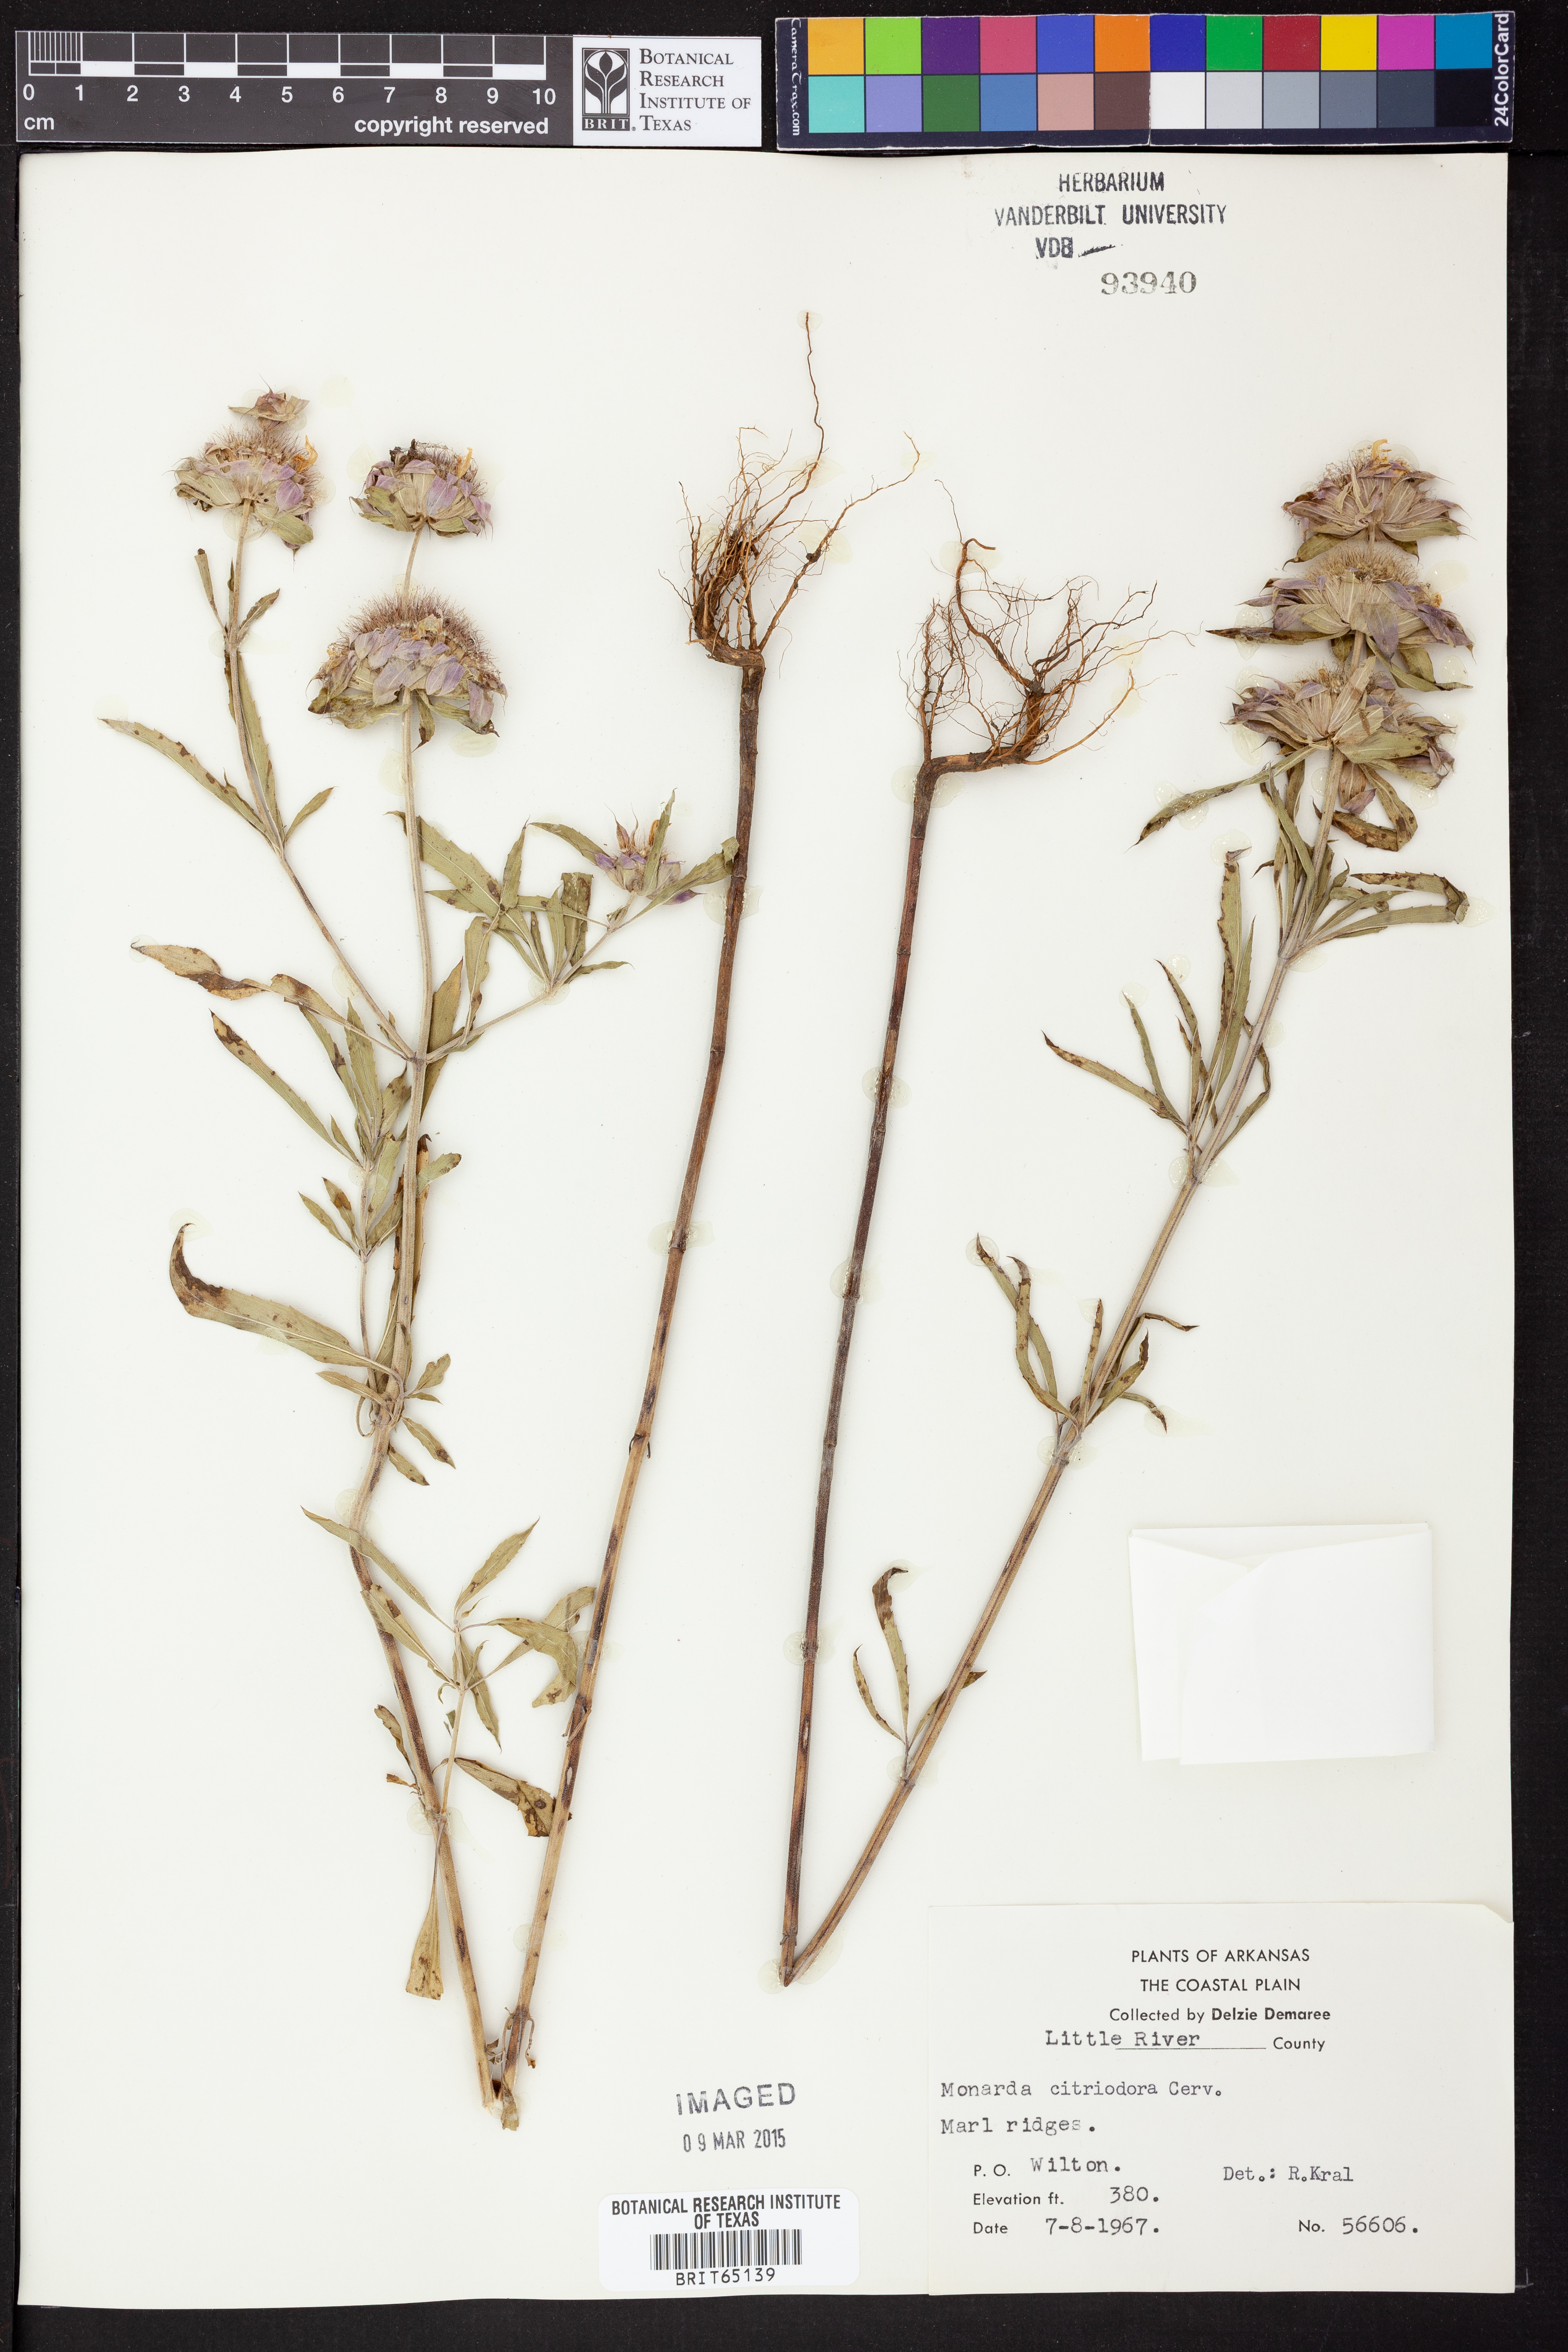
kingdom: Plantae
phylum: Tracheophyta
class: Magnoliopsida
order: Lamiales
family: Lamiaceae
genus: Monarda
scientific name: Monarda citriodora
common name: Lemon beebalm
